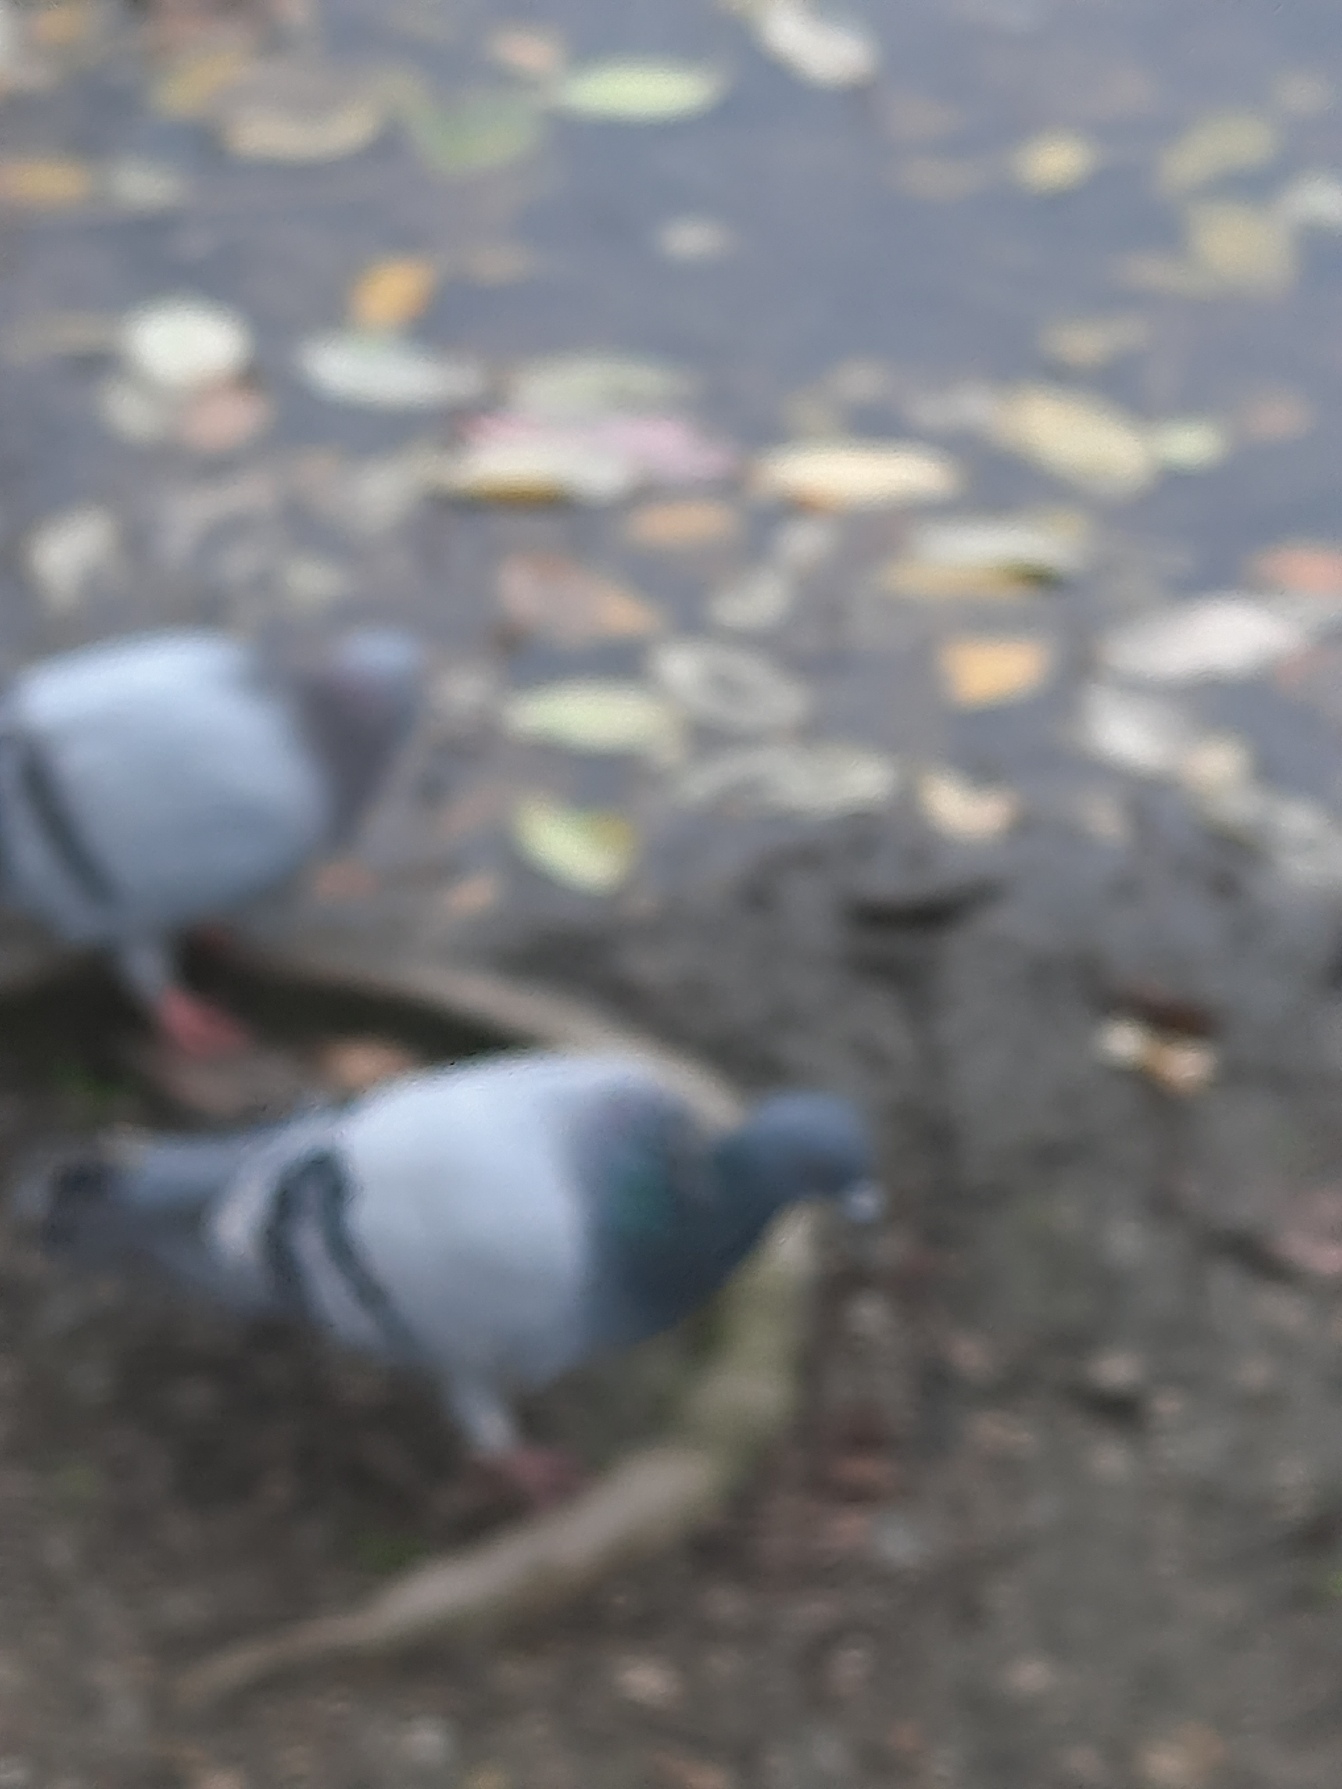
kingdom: Animalia
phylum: Chordata
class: Aves
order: Columbiformes
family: Columbidae
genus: Columba
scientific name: Columba livia
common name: Tamdue
